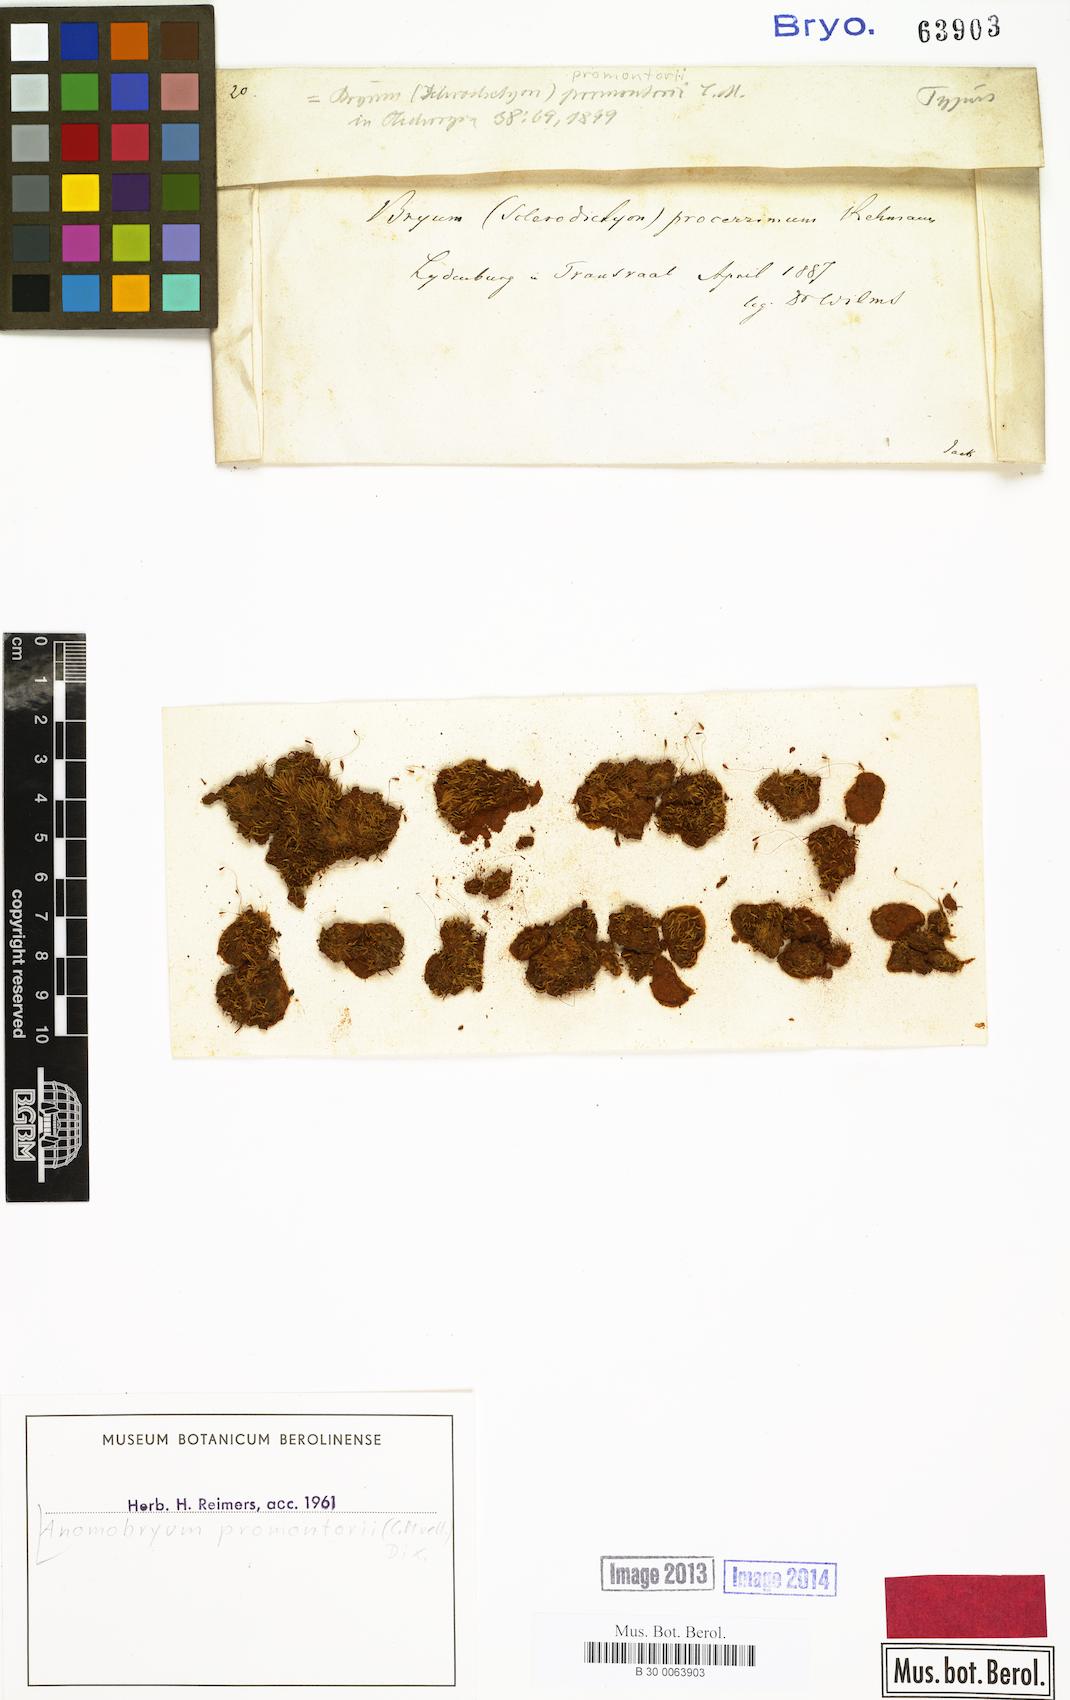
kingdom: Plantae
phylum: Bryophyta
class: Bryopsida
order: Bryales
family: Bryaceae
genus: Anomobryum
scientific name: Anomobryum julaceum
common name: Slender silver moss
